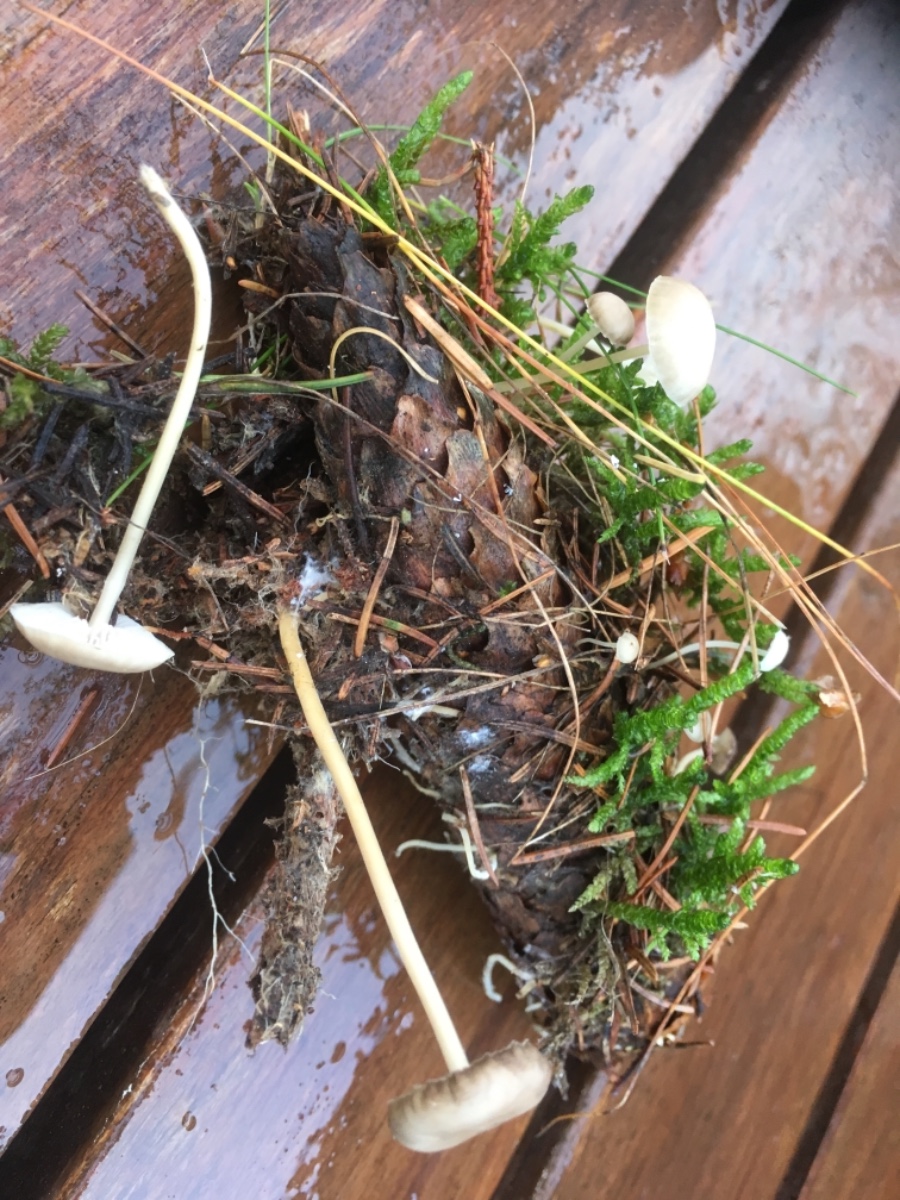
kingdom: Fungi
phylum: Basidiomycota
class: Agaricomycetes
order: Agaricales
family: Physalacriaceae
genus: Strobilurus
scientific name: Strobilurus esculentus
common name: gran-koglehat
